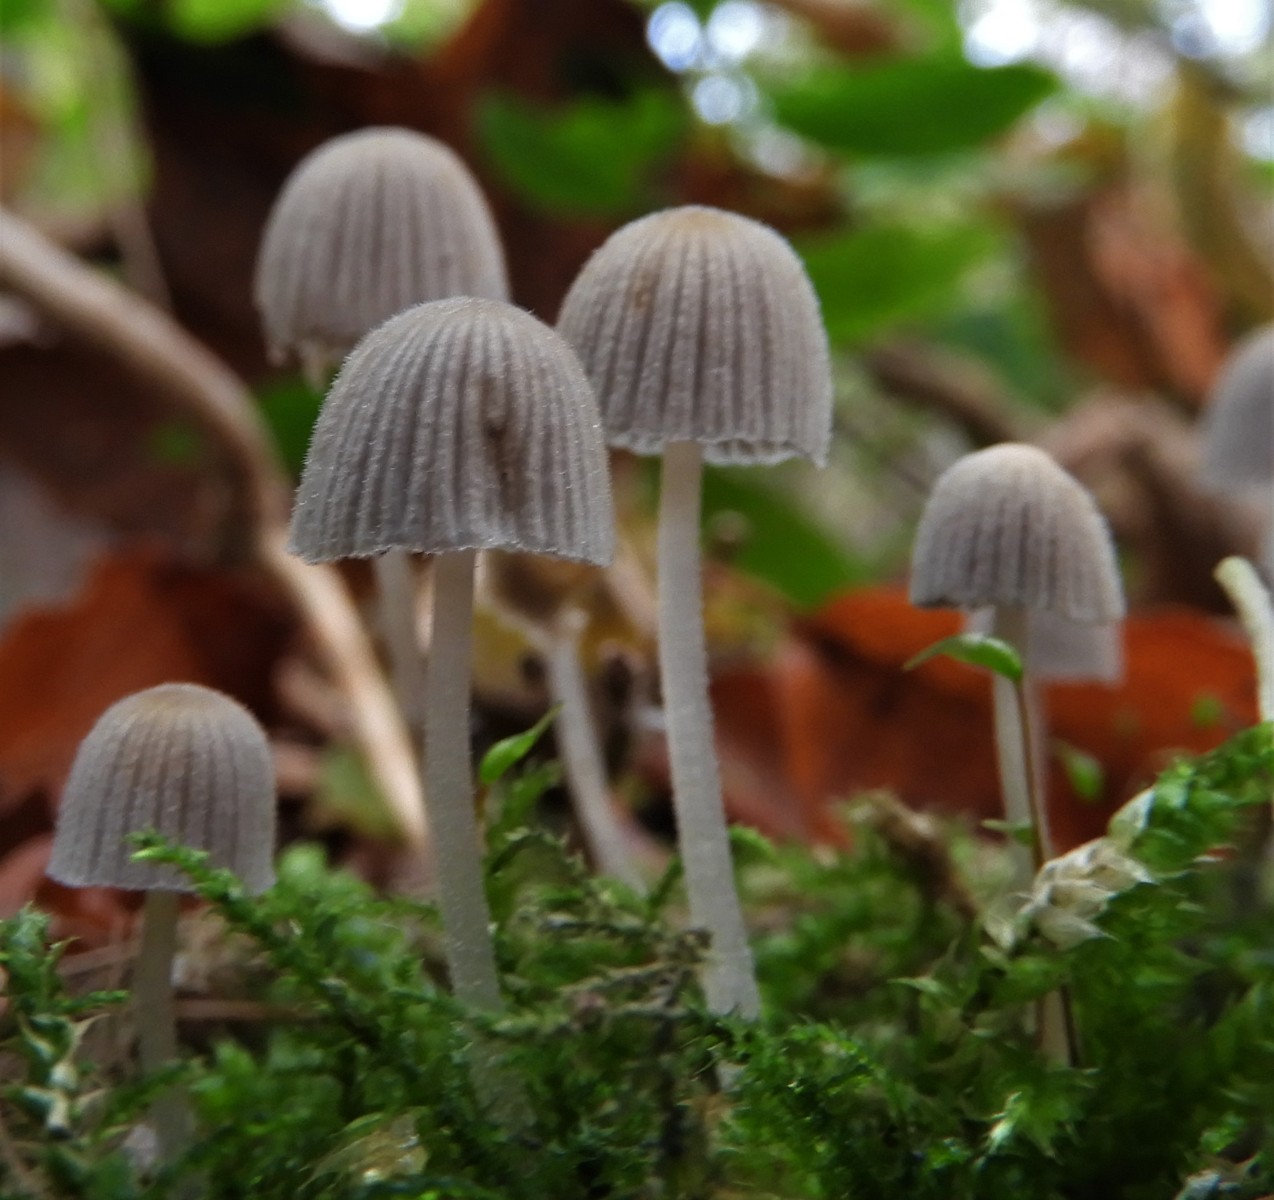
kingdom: Fungi
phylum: Basidiomycota
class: Agaricomycetes
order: Agaricales
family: Psathyrellaceae
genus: Coprinellus
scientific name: Coprinellus disseminatus
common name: bredsået blækhat
